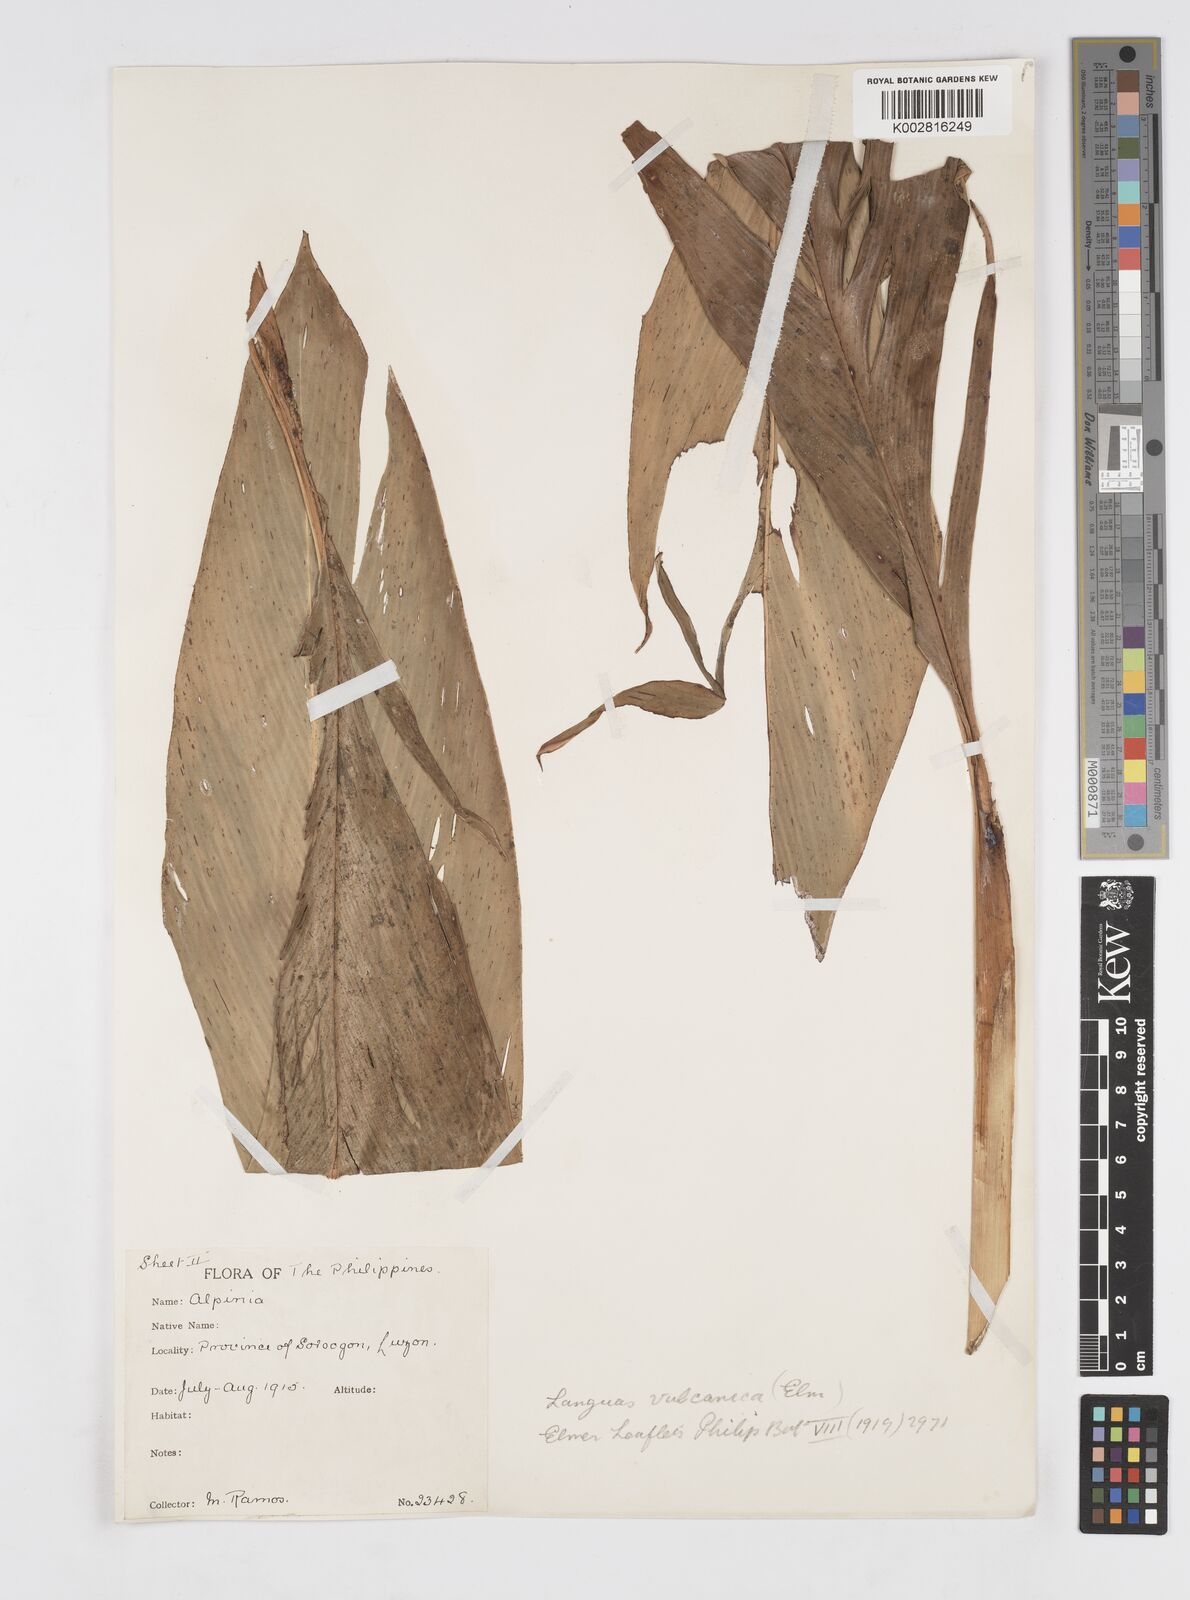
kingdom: Plantae
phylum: Tracheophyta
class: Liliopsida
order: Zingiberales
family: Zingiberaceae
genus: Alpinia
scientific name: Alpinia vulcanica
